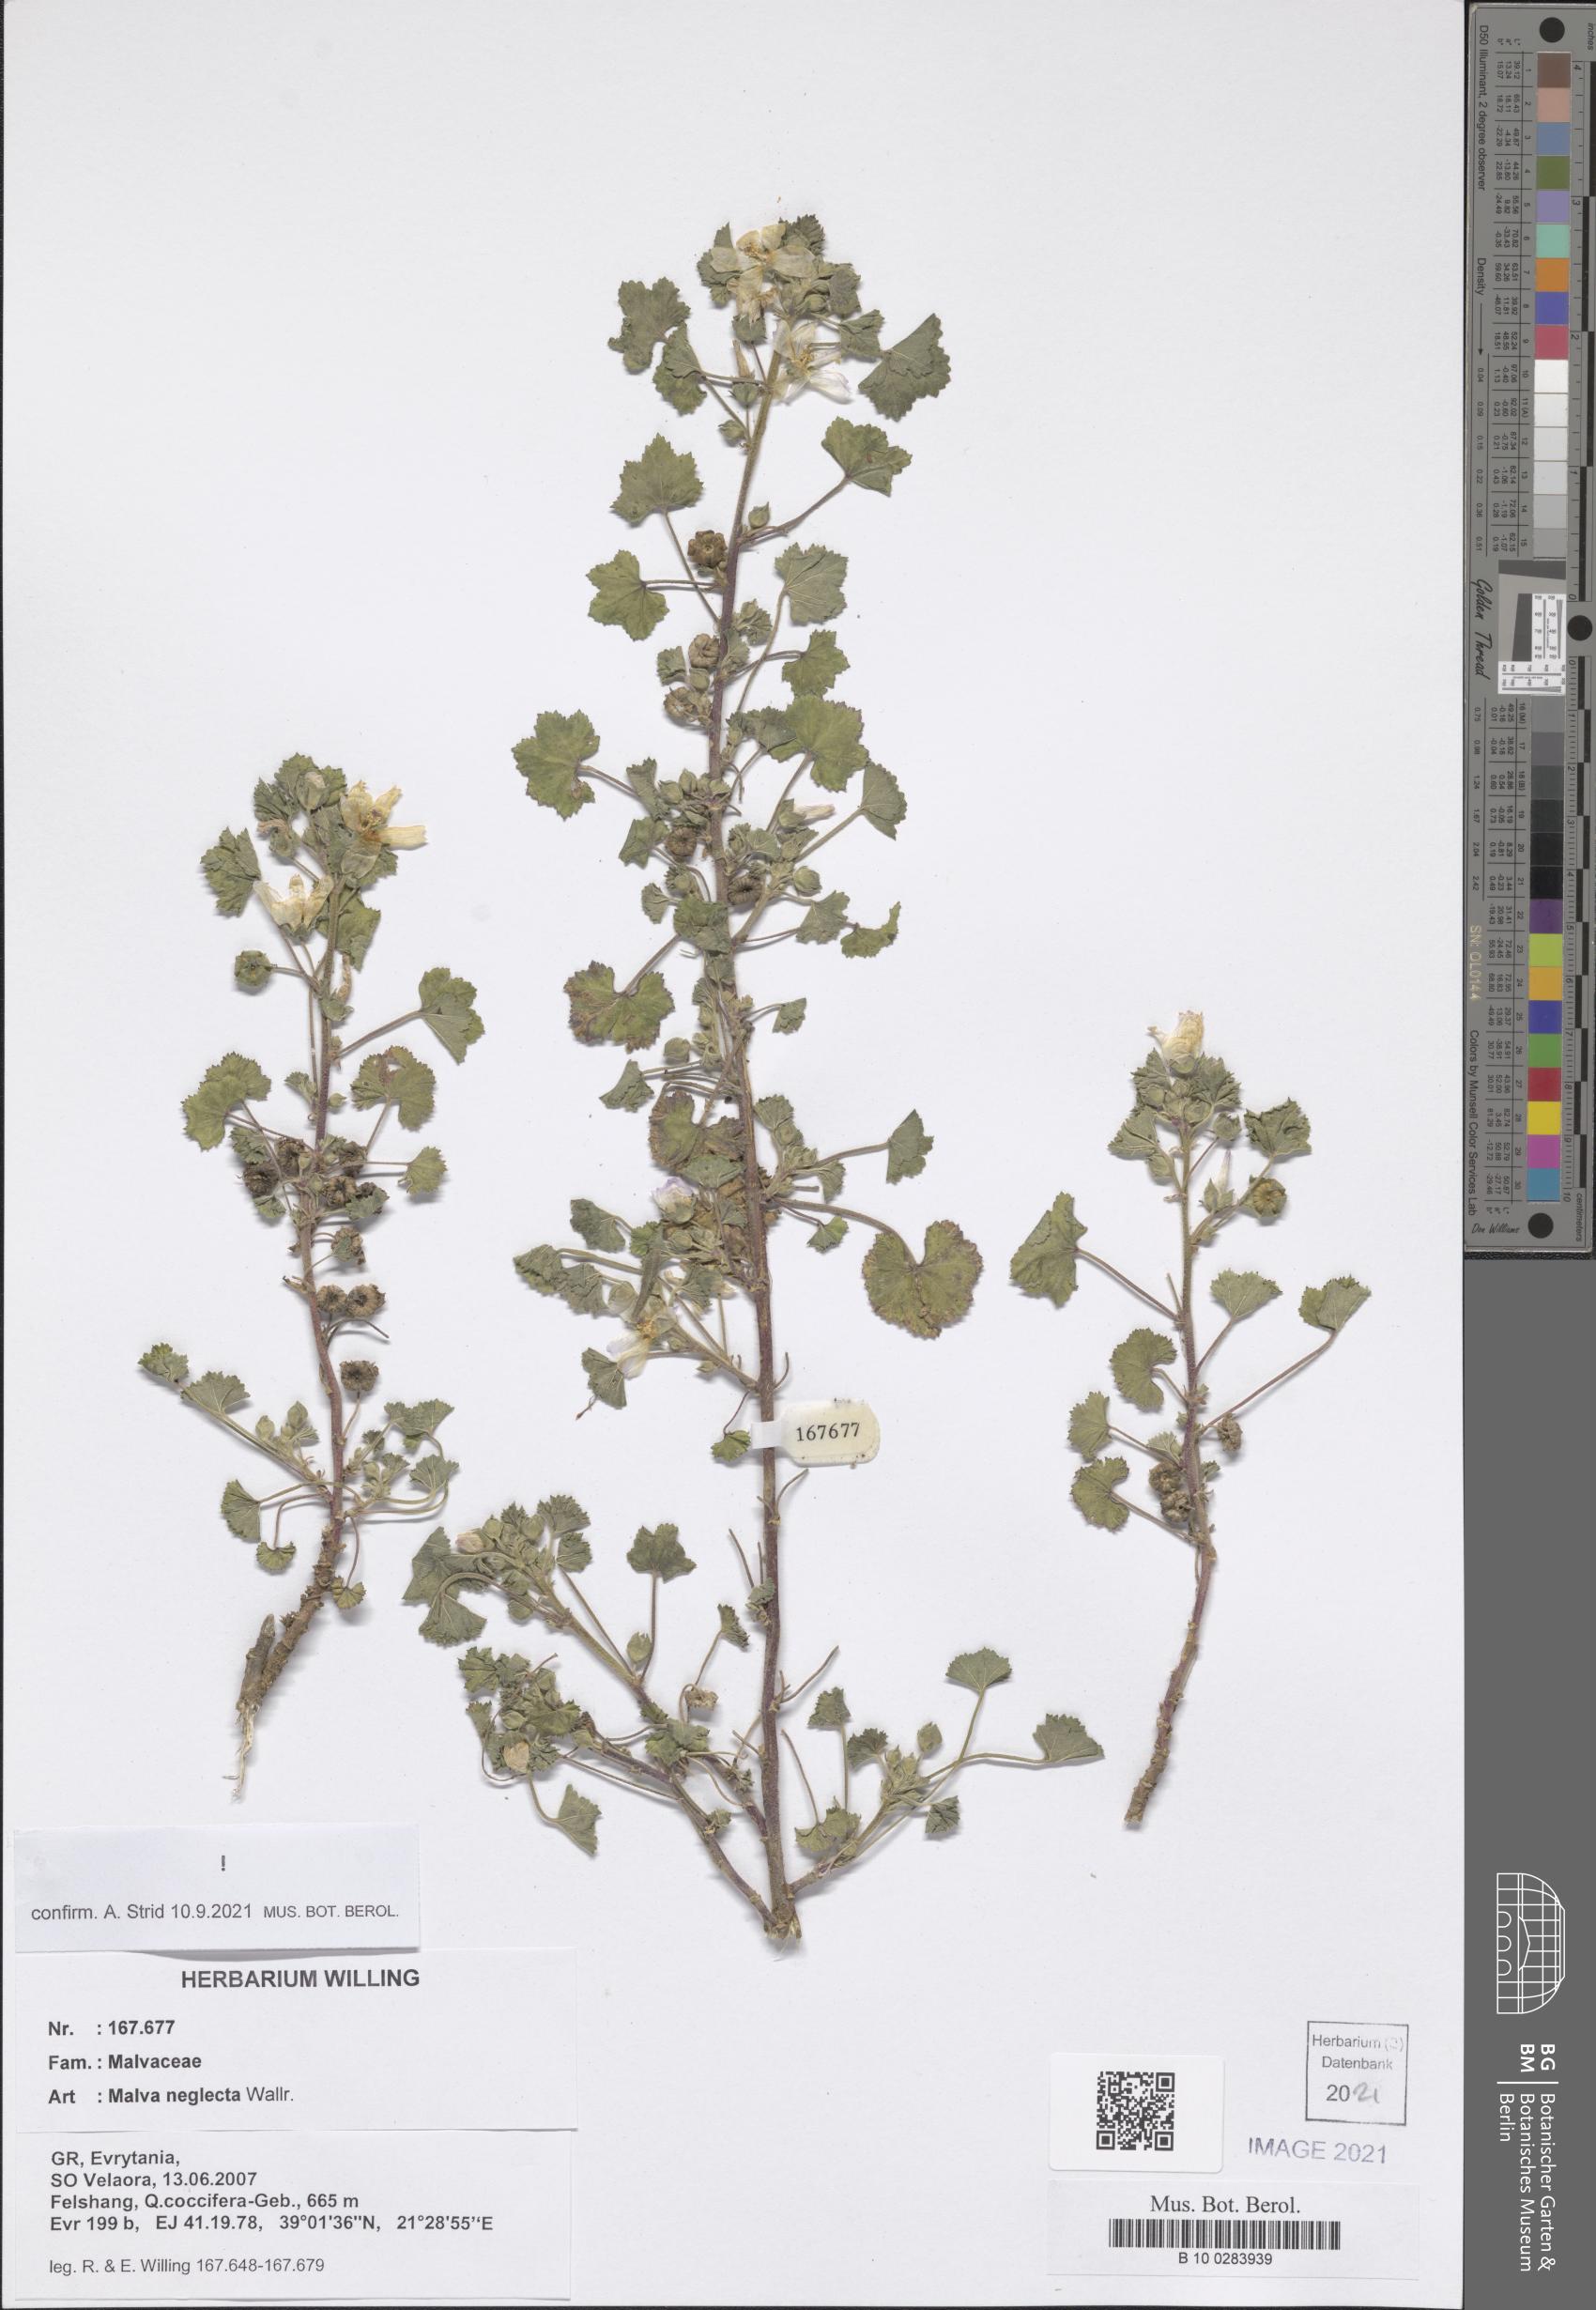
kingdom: Plantae
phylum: Tracheophyta
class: Magnoliopsida
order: Malvales
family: Malvaceae
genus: Malva
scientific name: Malva neglecta
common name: Common mallow
